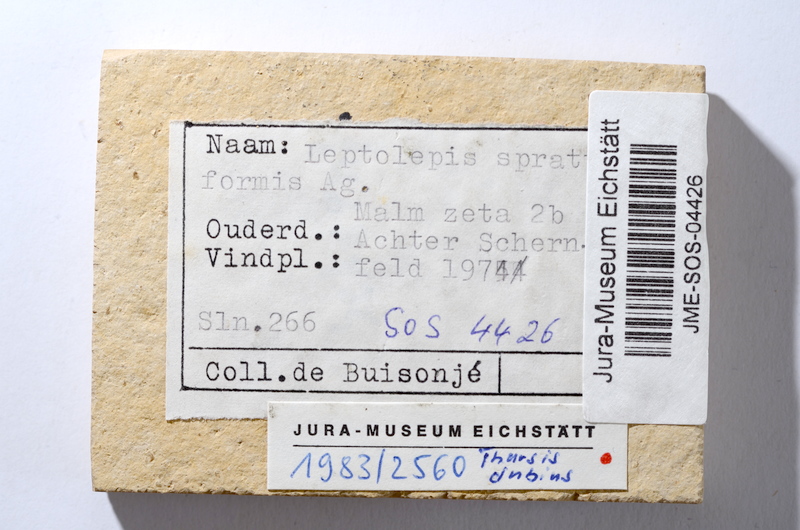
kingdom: Animalia
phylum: Chordata
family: Ascalaboidae
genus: Tharsis
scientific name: Tharsis dubius
